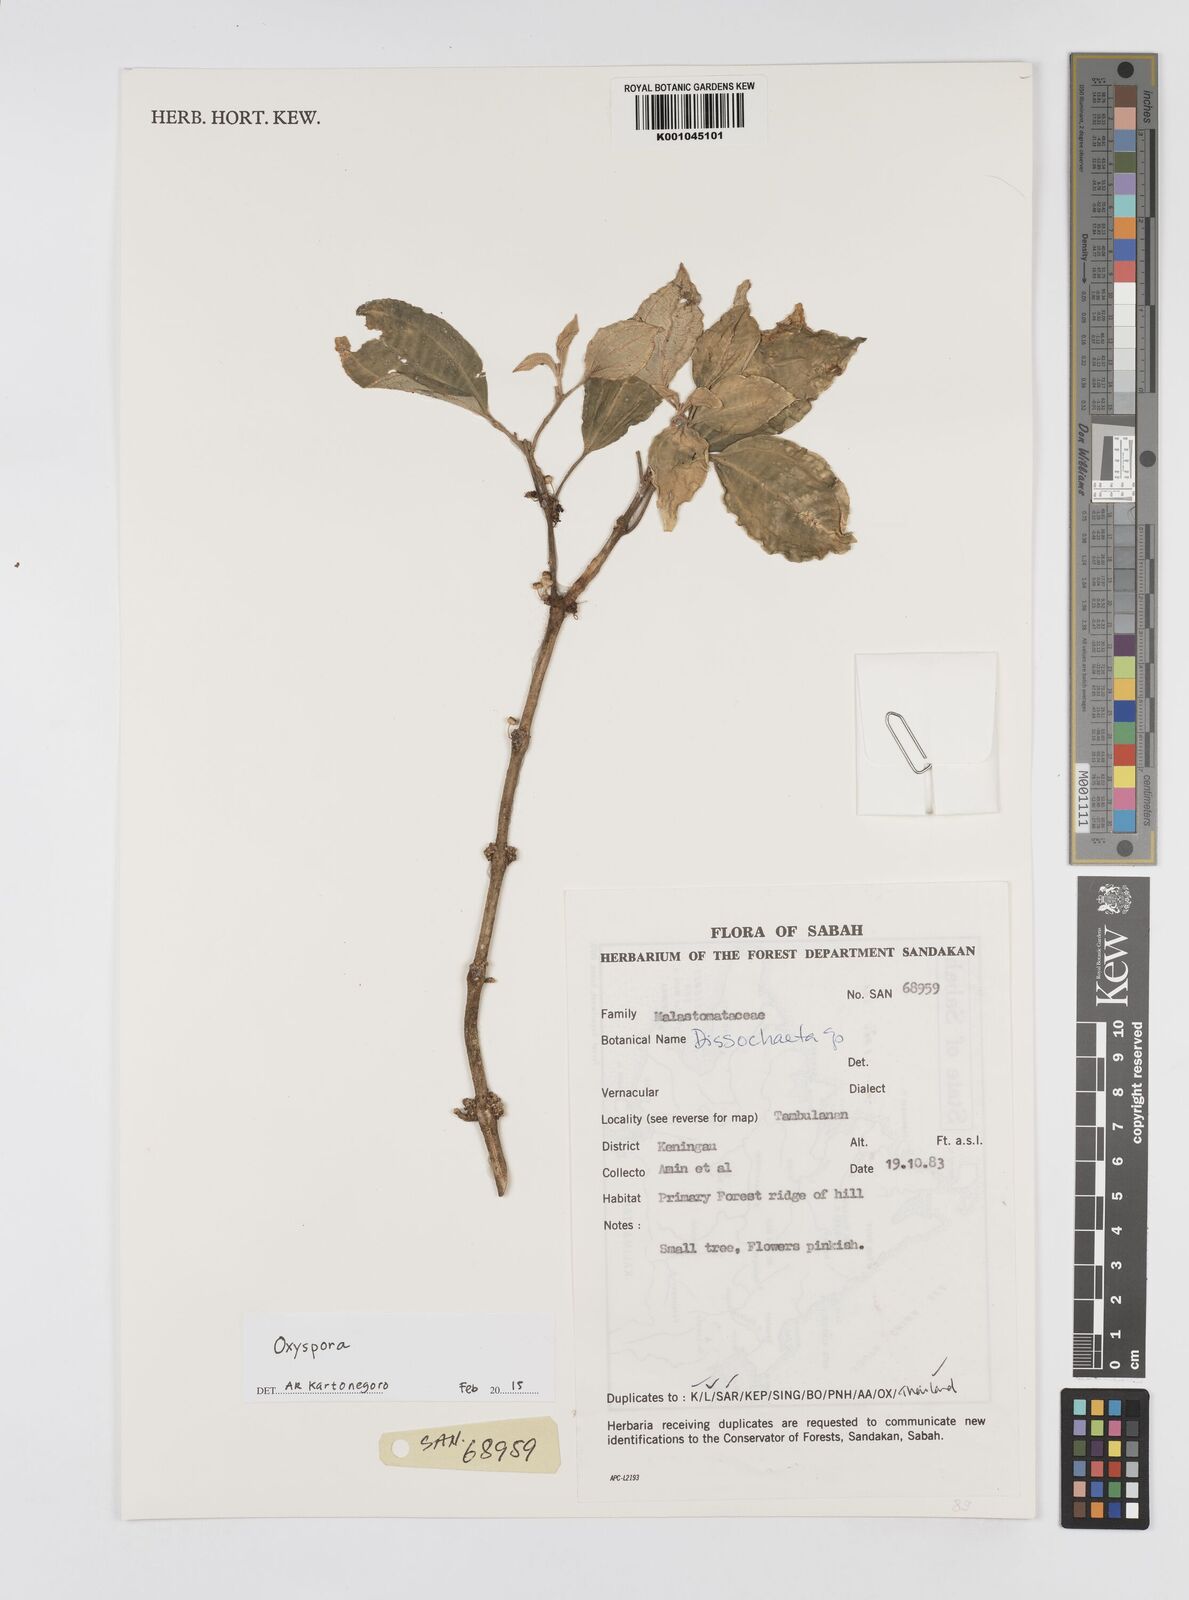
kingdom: Plantae
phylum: Tracheophyta
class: Magnoliopsida
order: Myrtales
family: Melastomataceae
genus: Oxyspora
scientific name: Oxyspora
